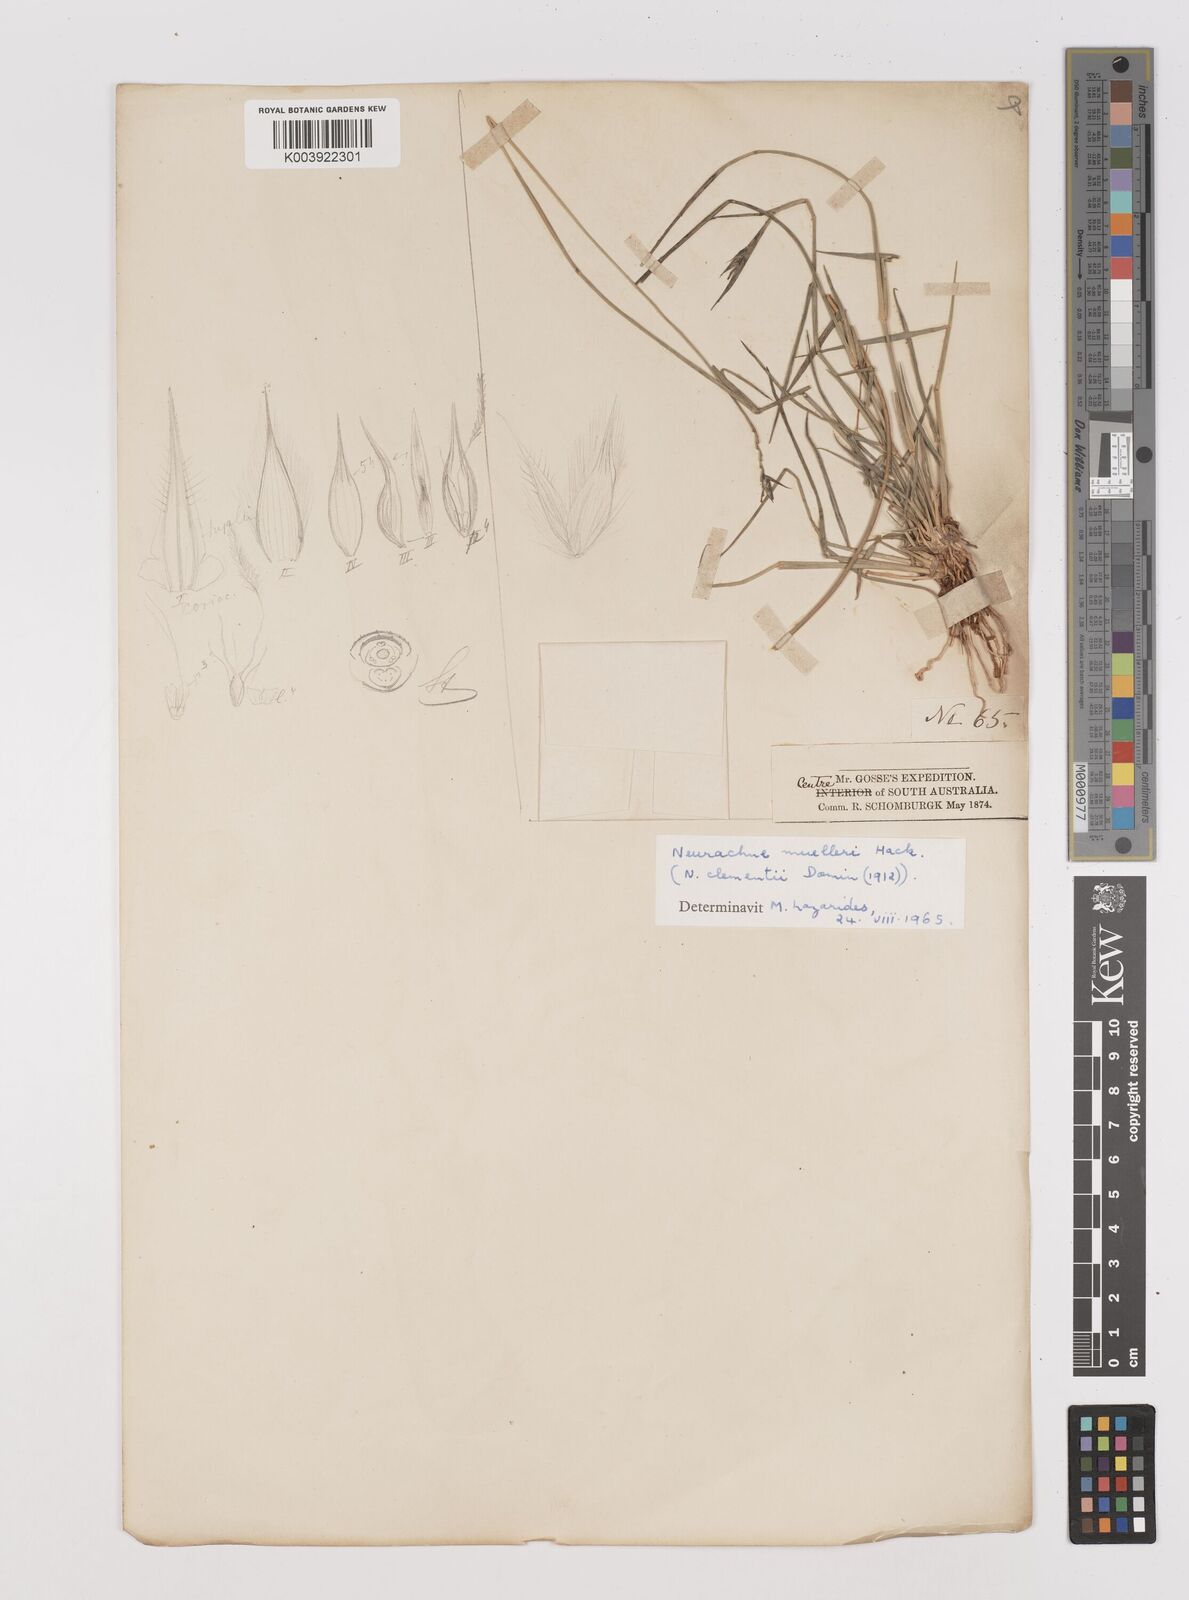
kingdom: Plantae
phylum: Tracheophyta
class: Liliopsida
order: Poales
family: Poaceae
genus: Neurachne
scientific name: Neurachne muelleri
